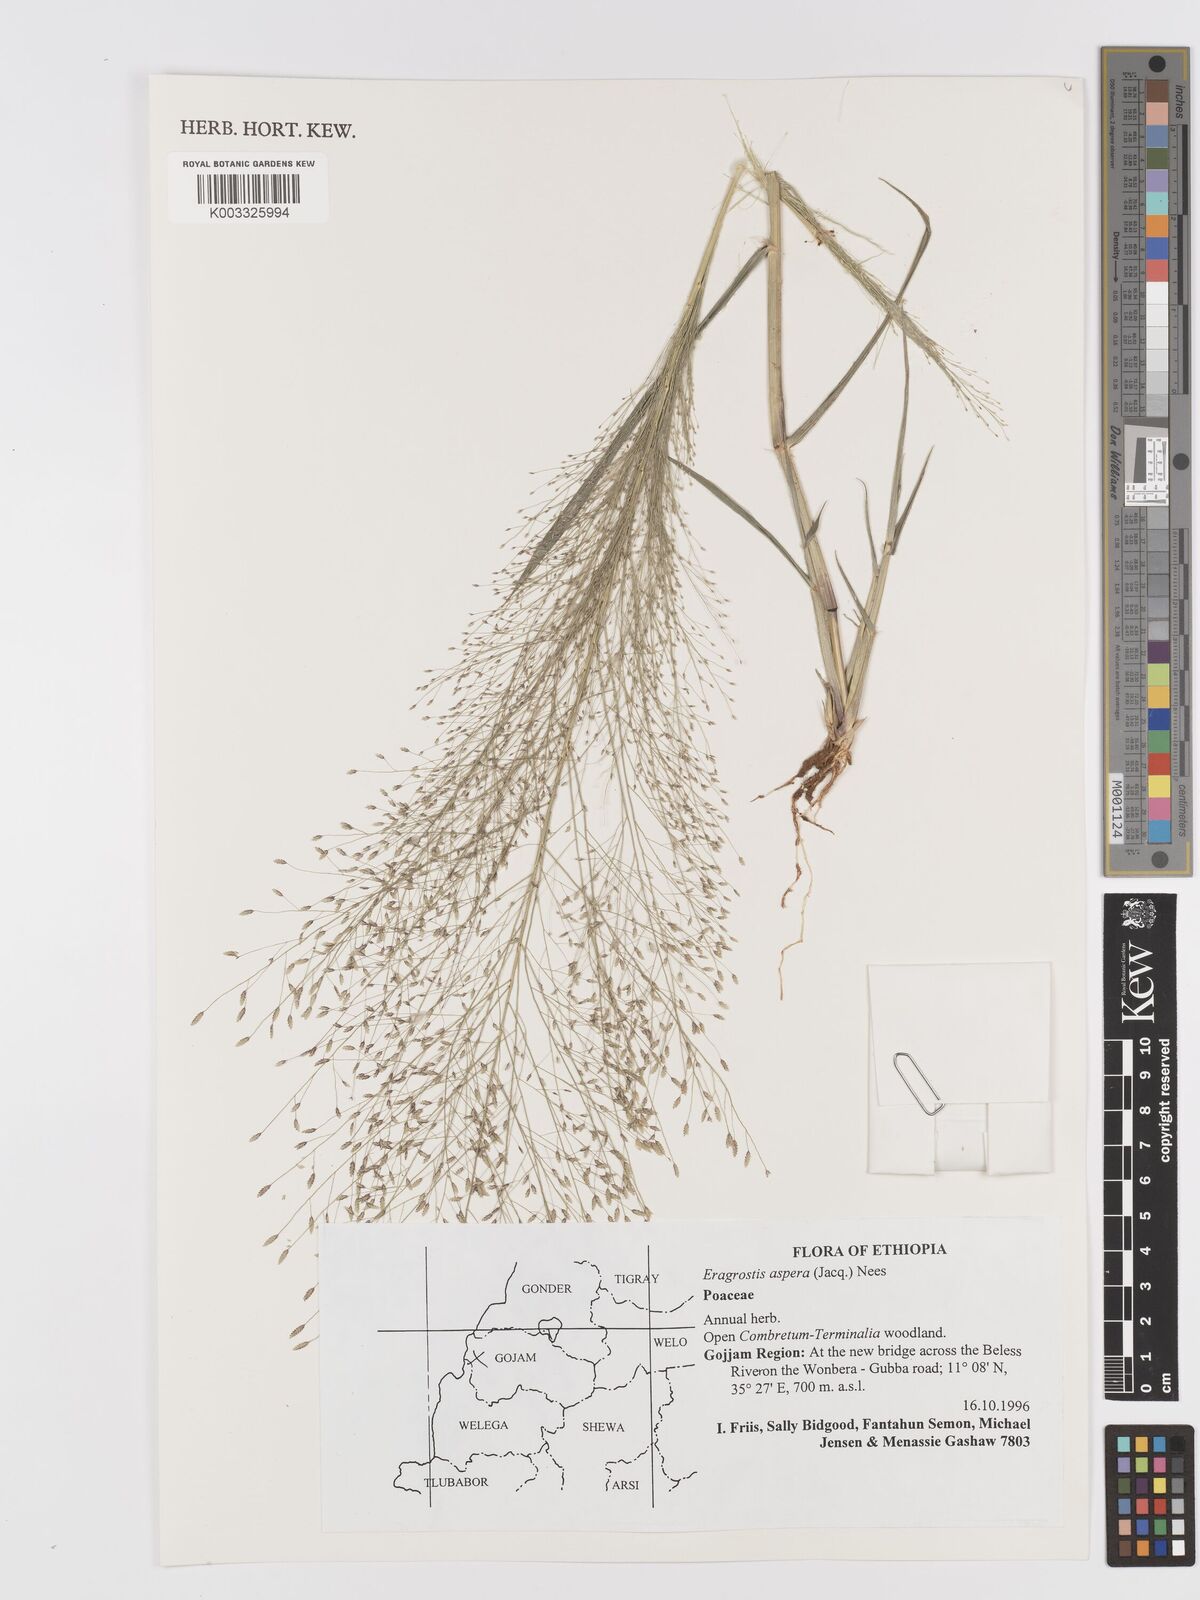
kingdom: Plantae
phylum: Tracheophyta
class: Liliopsida
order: Poales
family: Poaceae
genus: Eragrostis
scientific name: Eragrostis aspera
